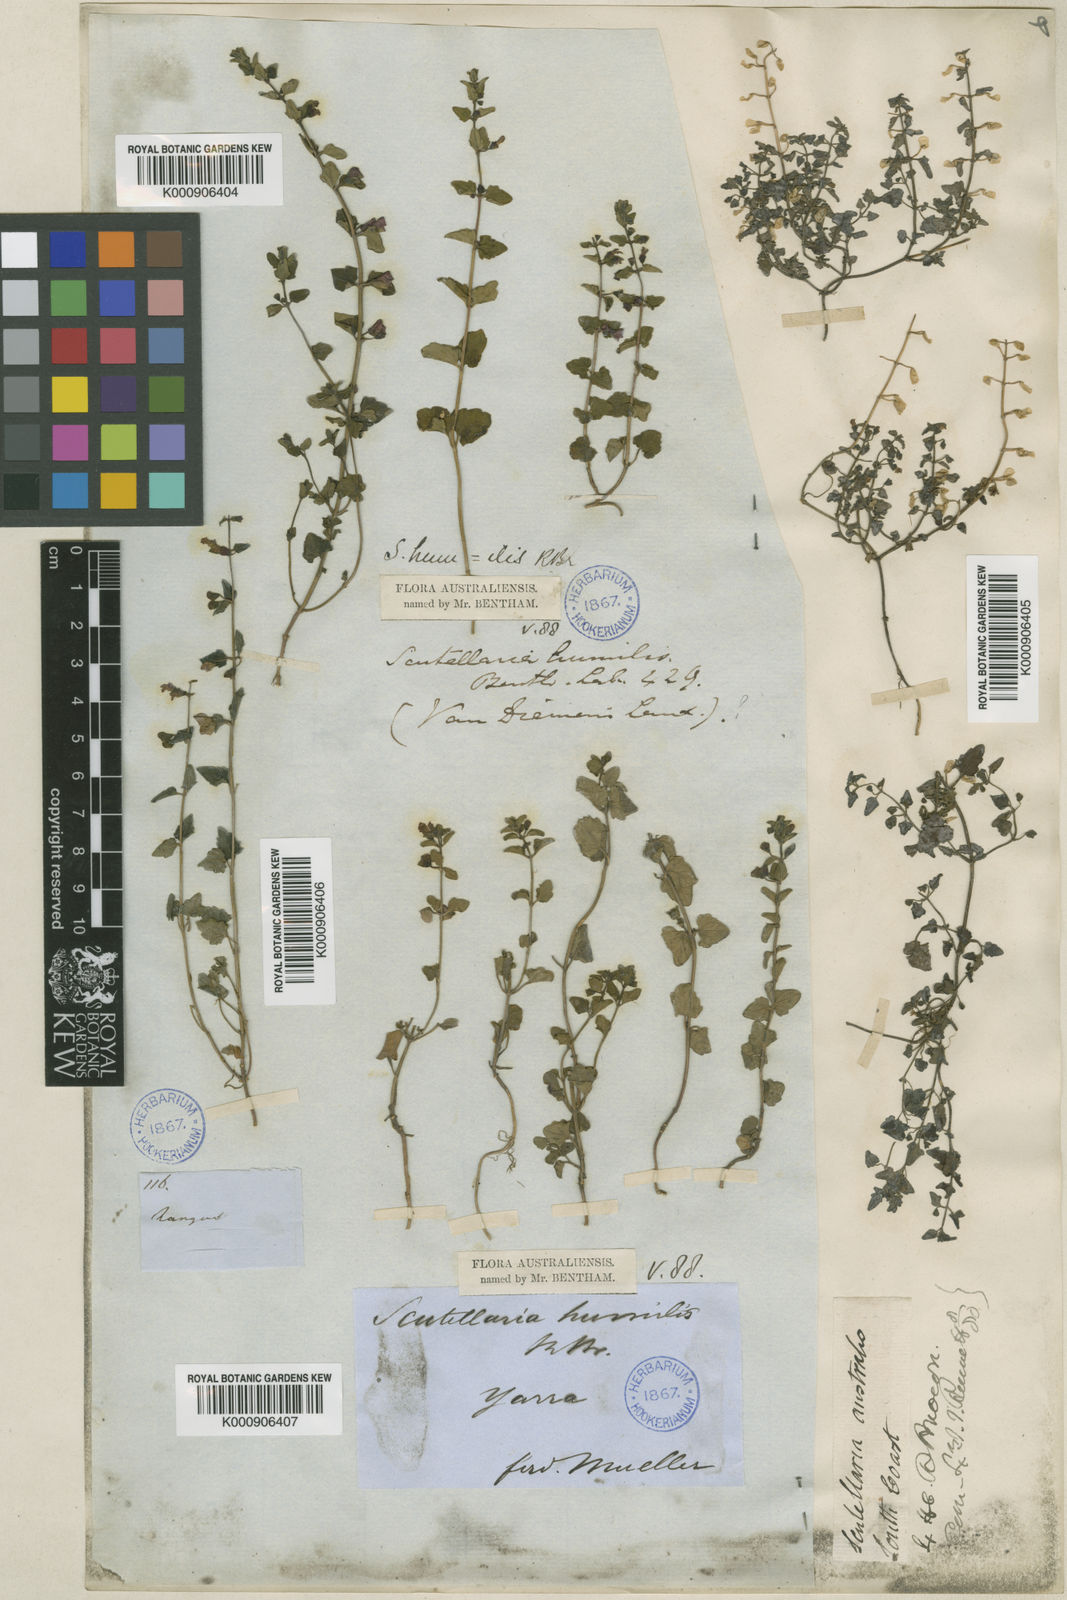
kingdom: Plantae
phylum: Tracheophyta
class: Magnoliopsida
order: Lamiales
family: Lamiaceae
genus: Scutellaria
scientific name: Scutellaria humilis
